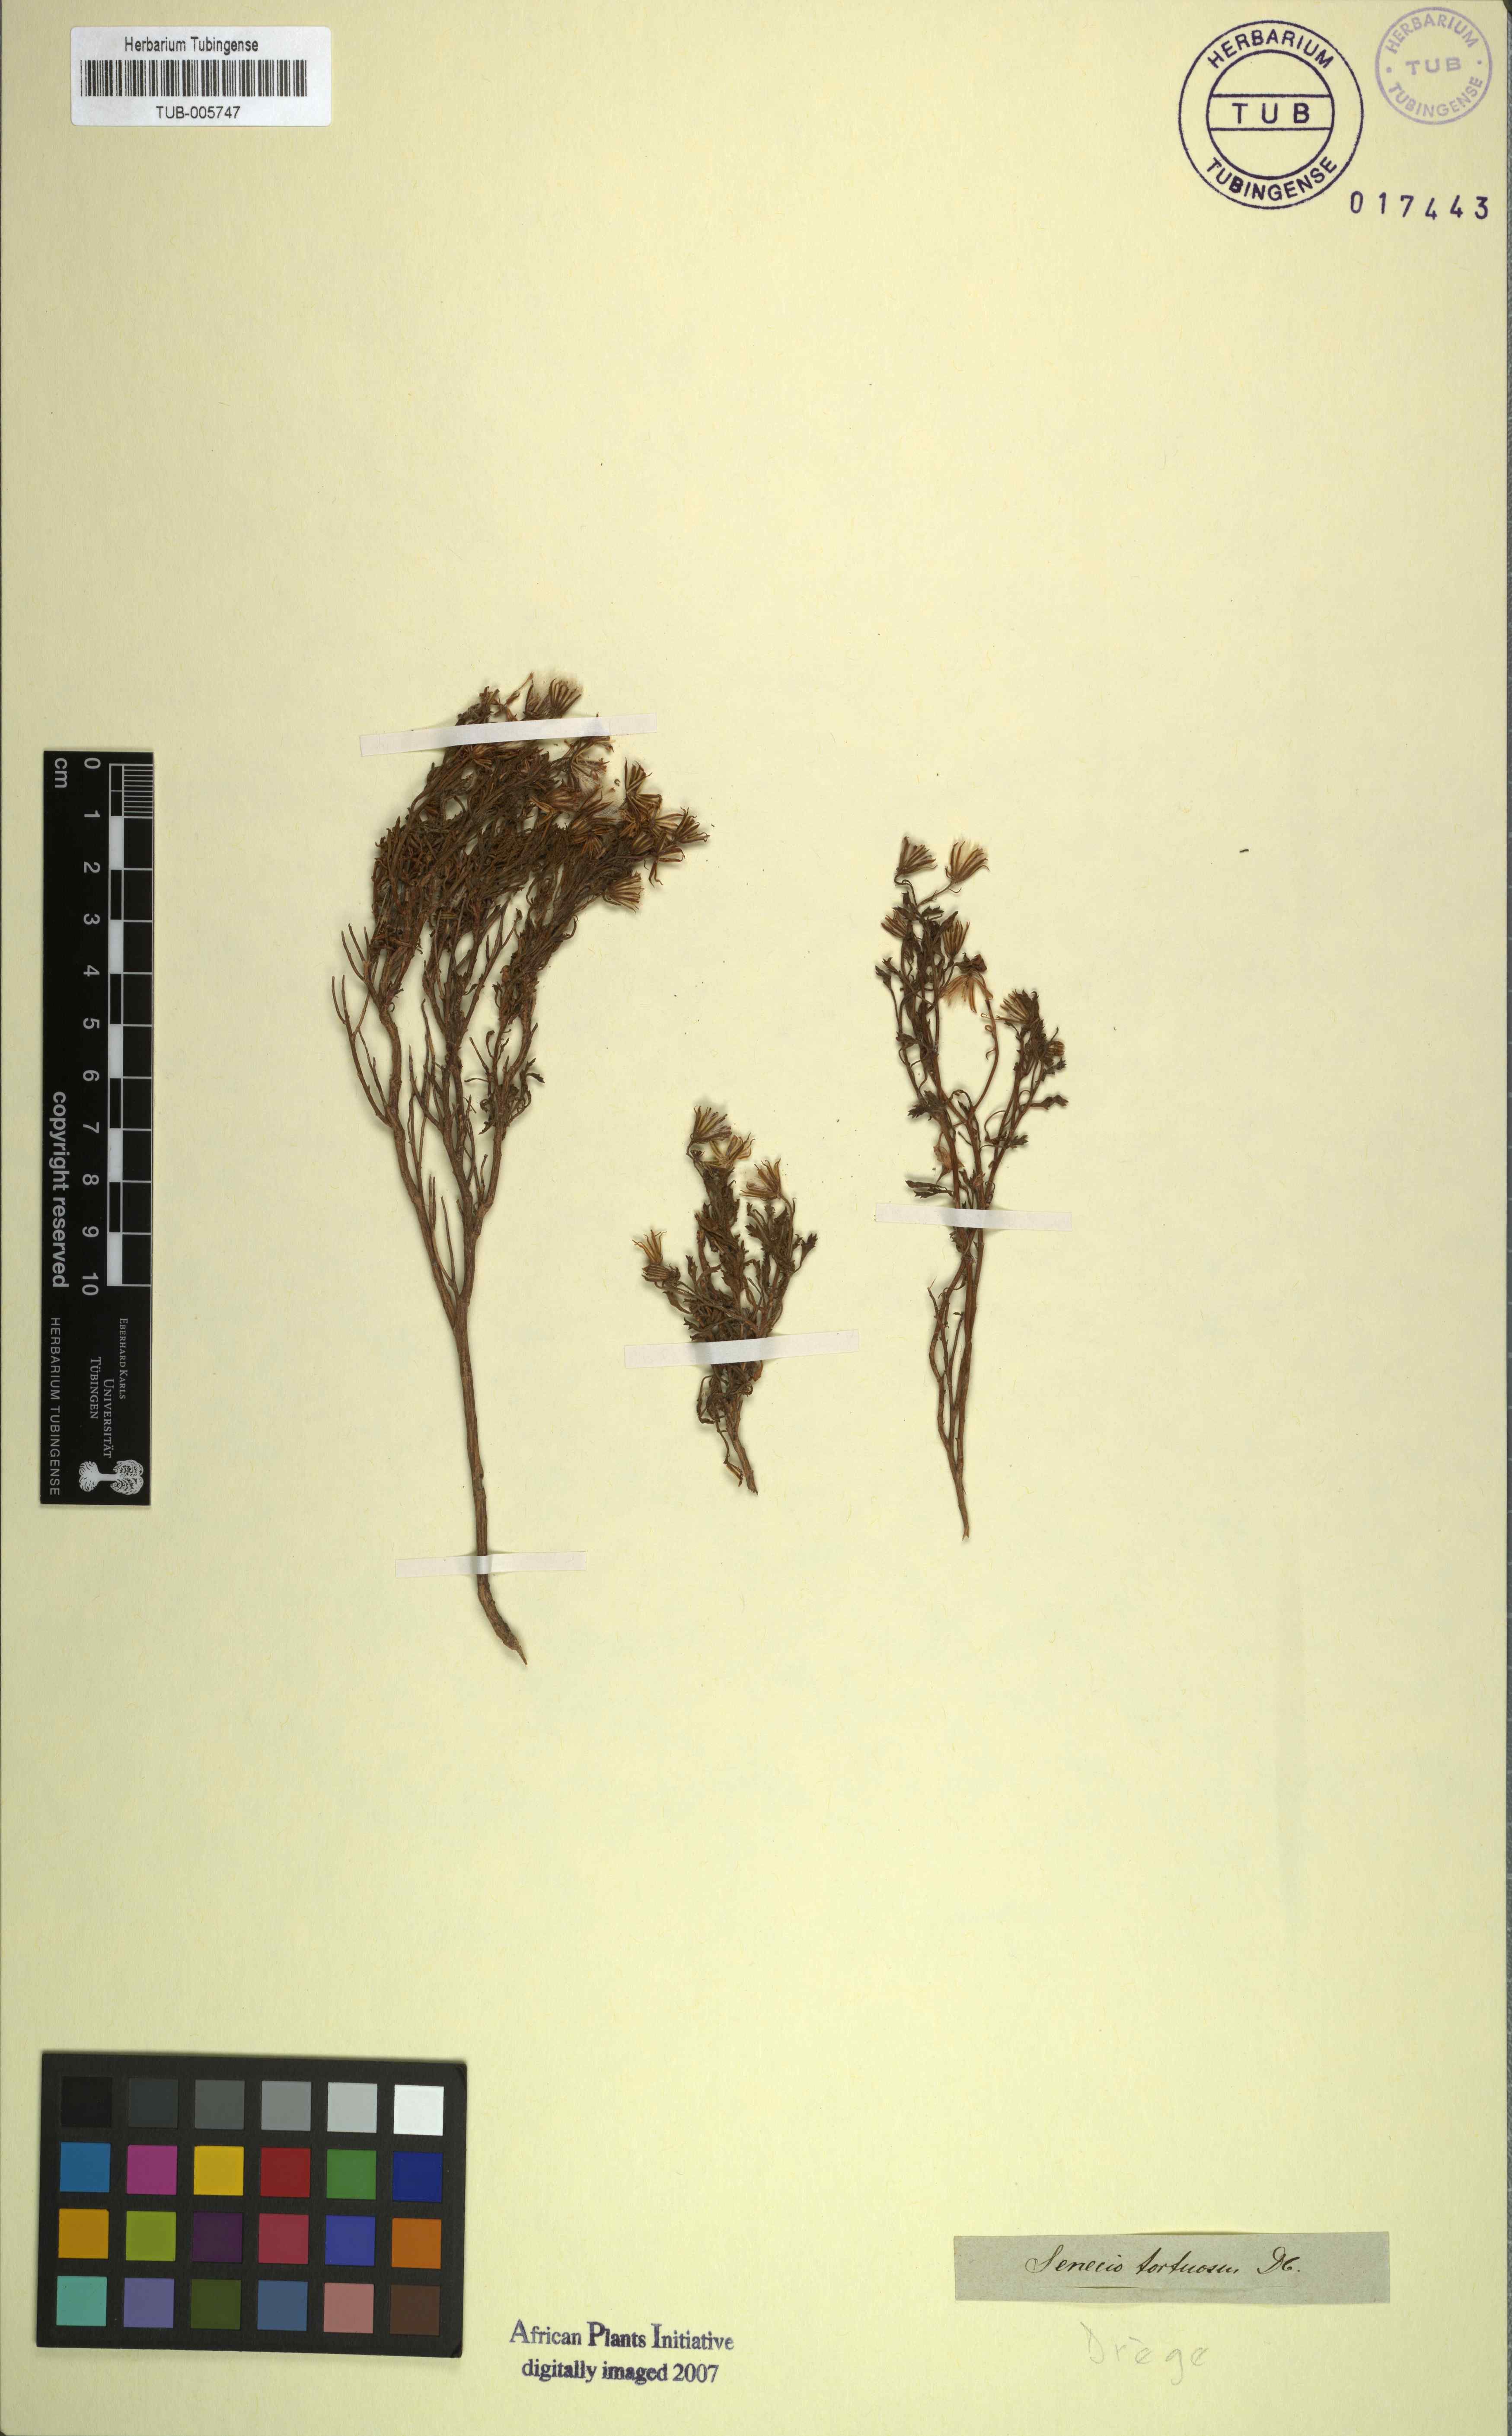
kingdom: Plantae
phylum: Tracheophyta
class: Magnoliopsida
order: Asterales
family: Asteraceae
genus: Senecio
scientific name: Senecio tortuosus
